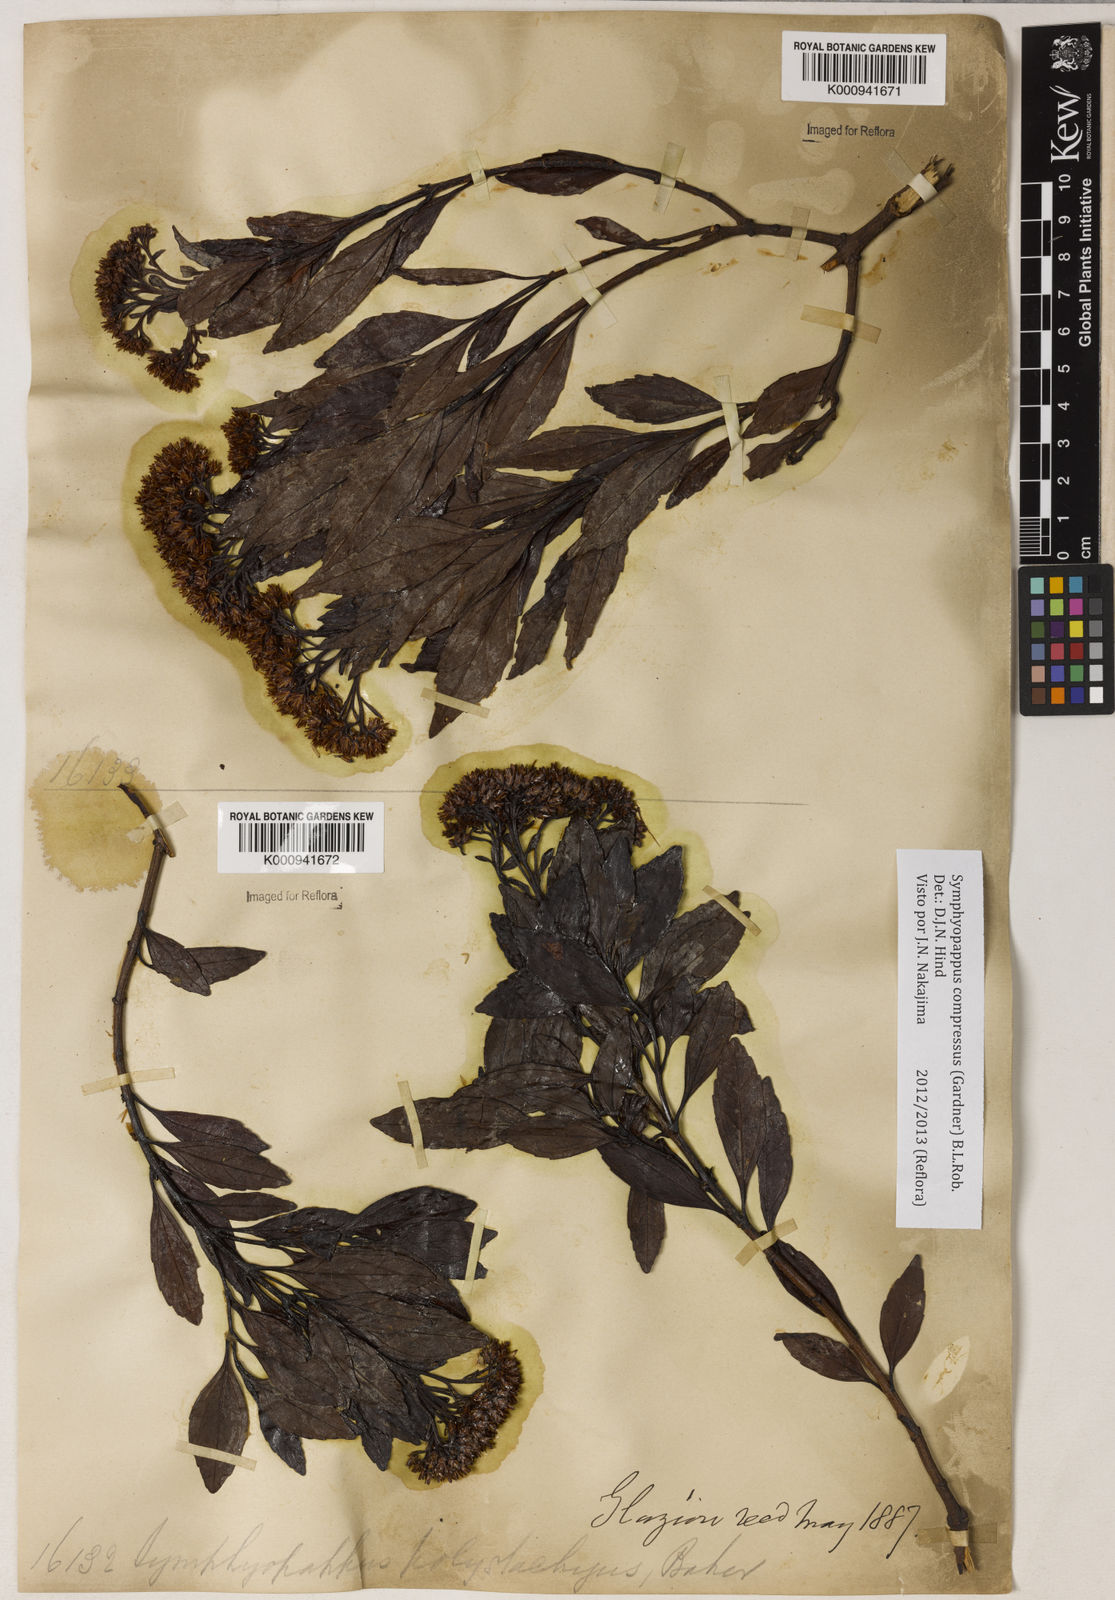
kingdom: Plantae
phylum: Tracheophyta
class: Magnoliopsida
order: Asterales
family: Asteraceae
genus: Symphyopappus
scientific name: Symphyopappus compressus
